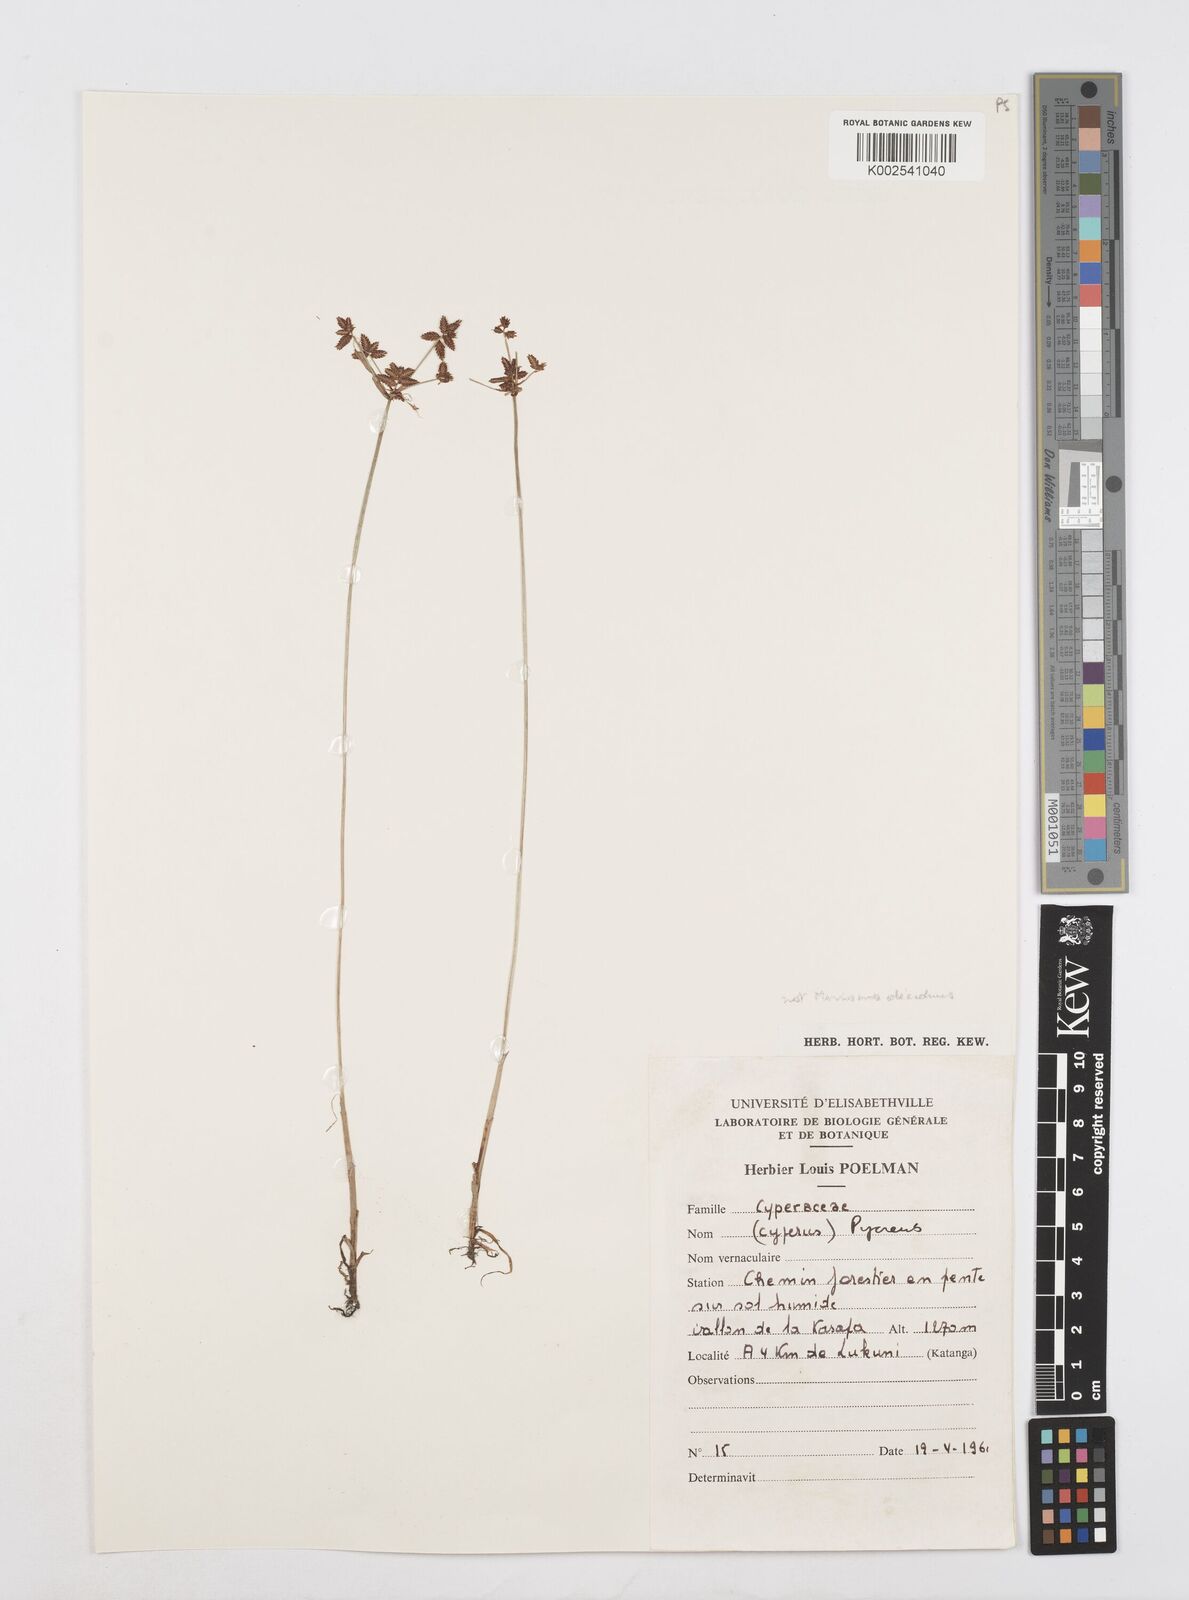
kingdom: Plantae
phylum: Tracheophyta
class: Liliopsida
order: Poales
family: Cyperaceae
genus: Cyperus
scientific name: Cyperus
